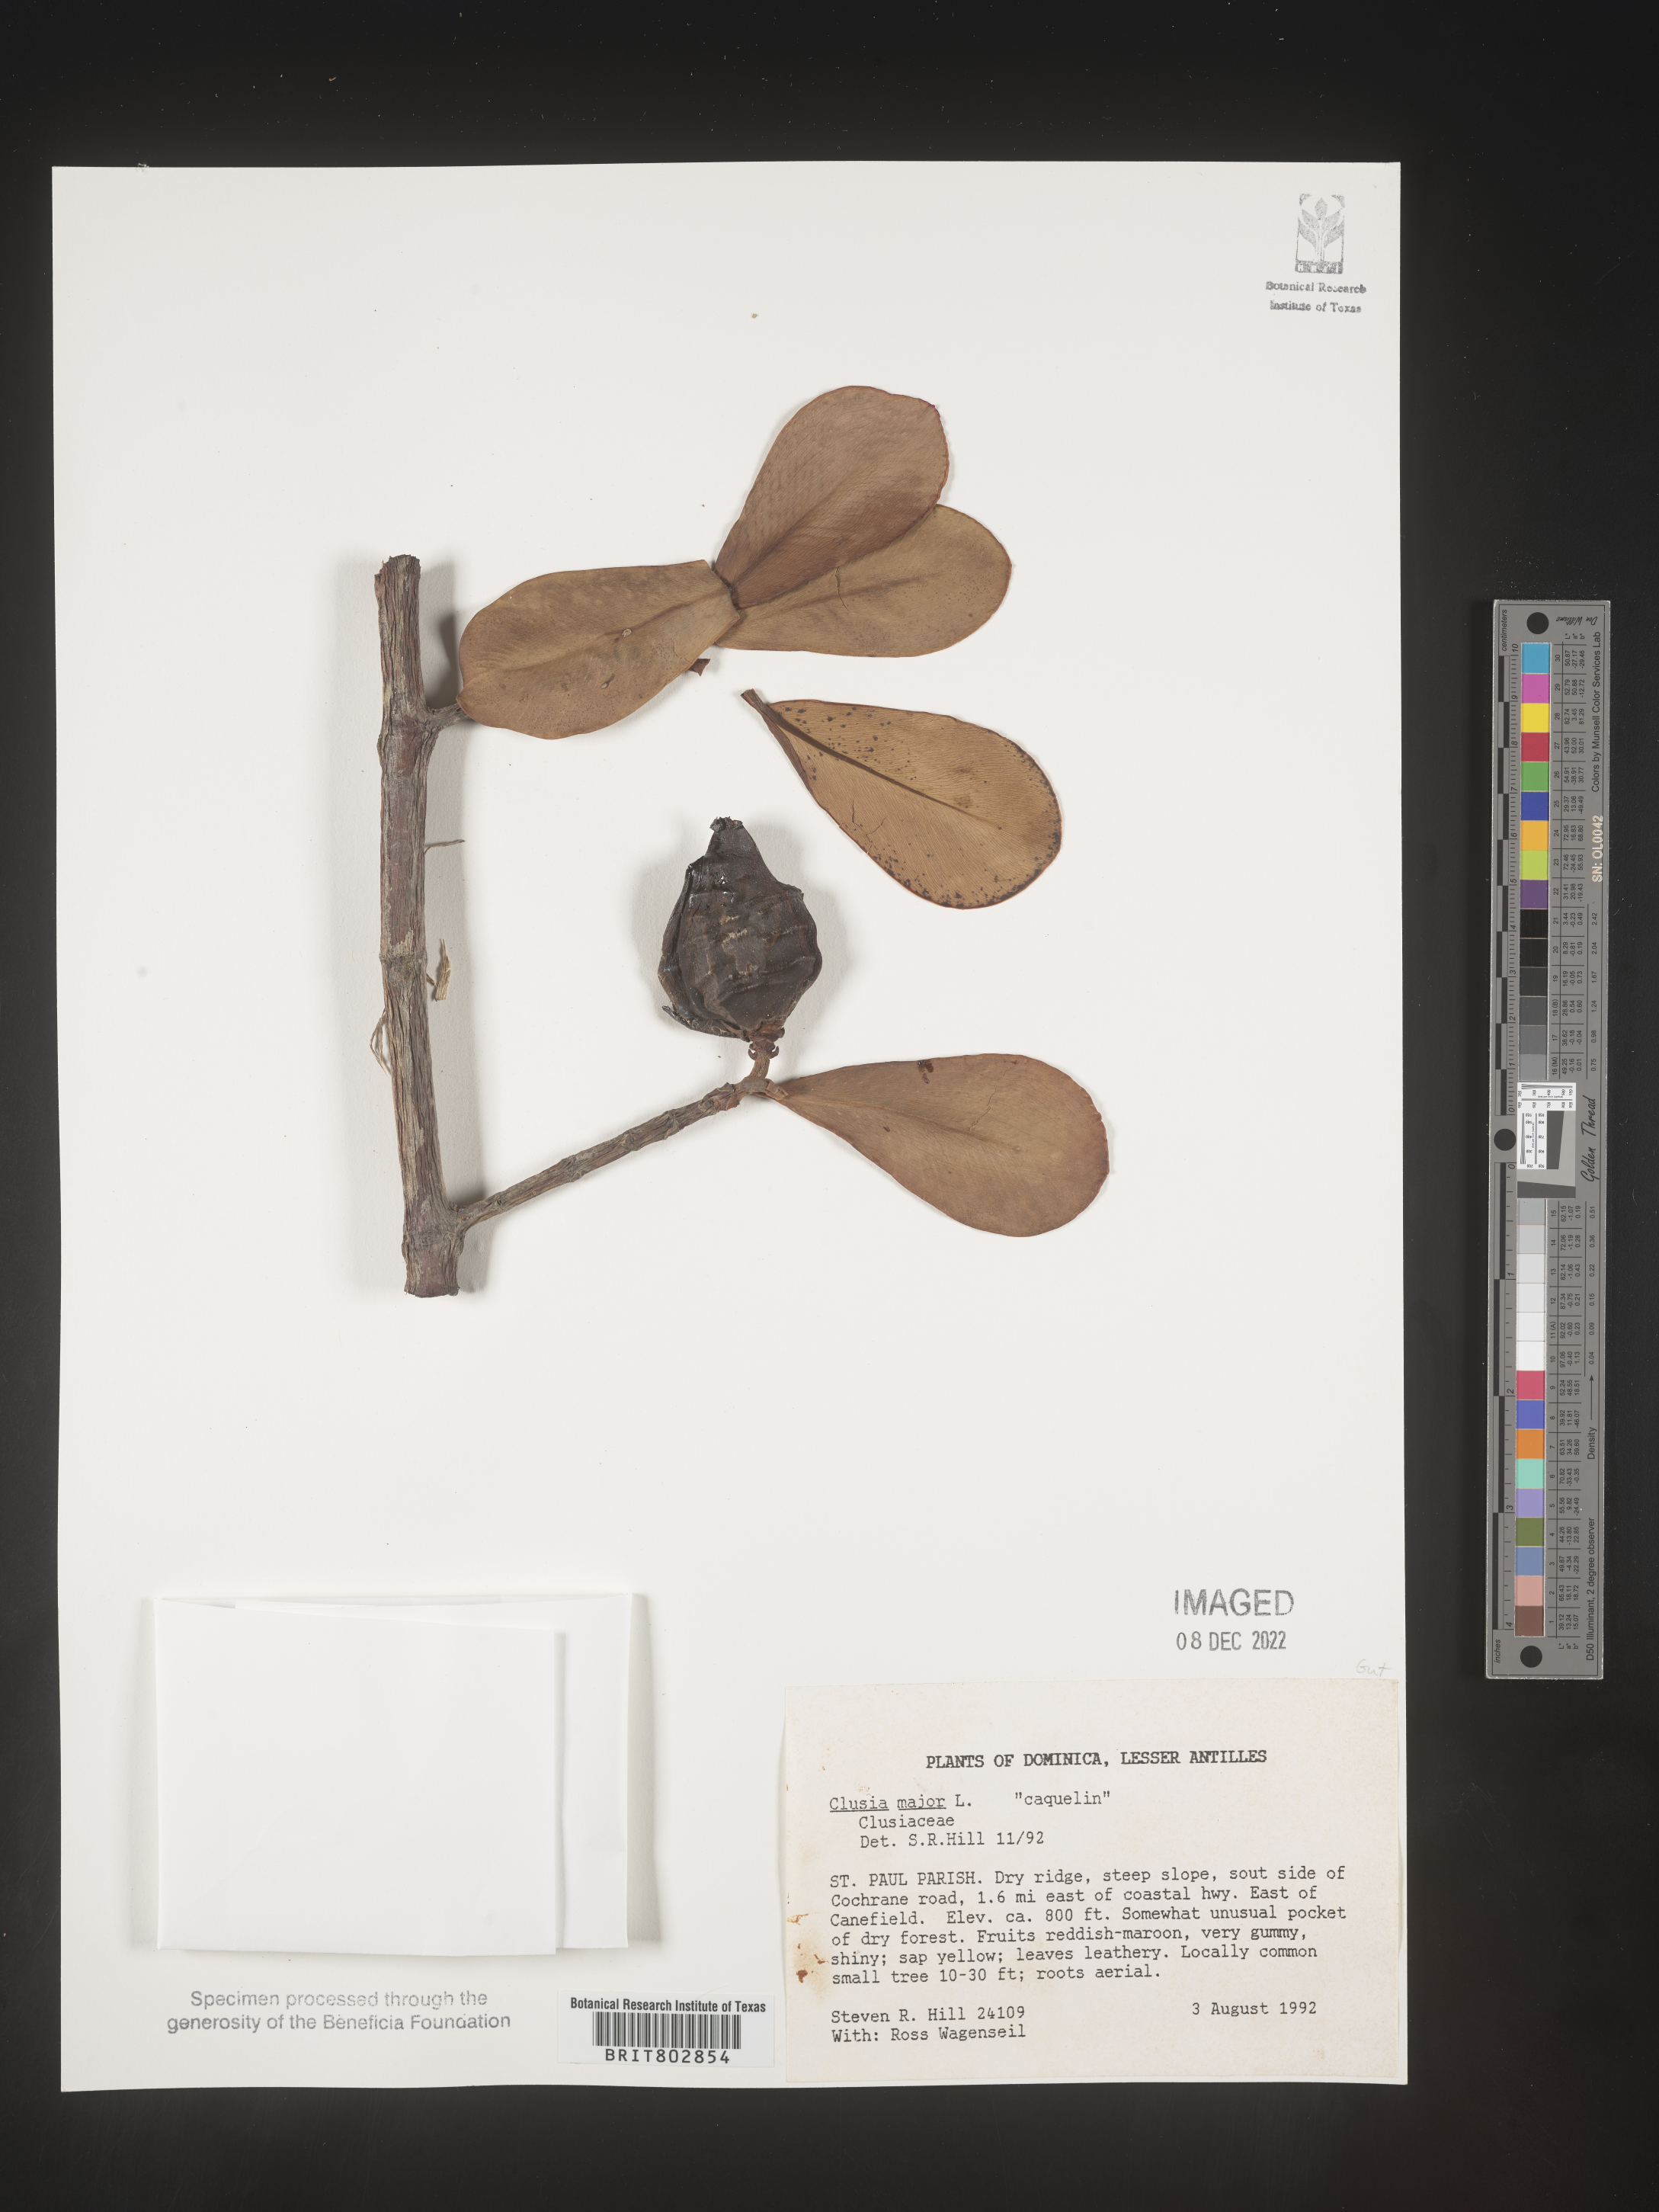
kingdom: Plantae
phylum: Tracheophyta
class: Magnoliopsida
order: Malpighiales
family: Clusiaceae
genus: Clusia
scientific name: Clusia
